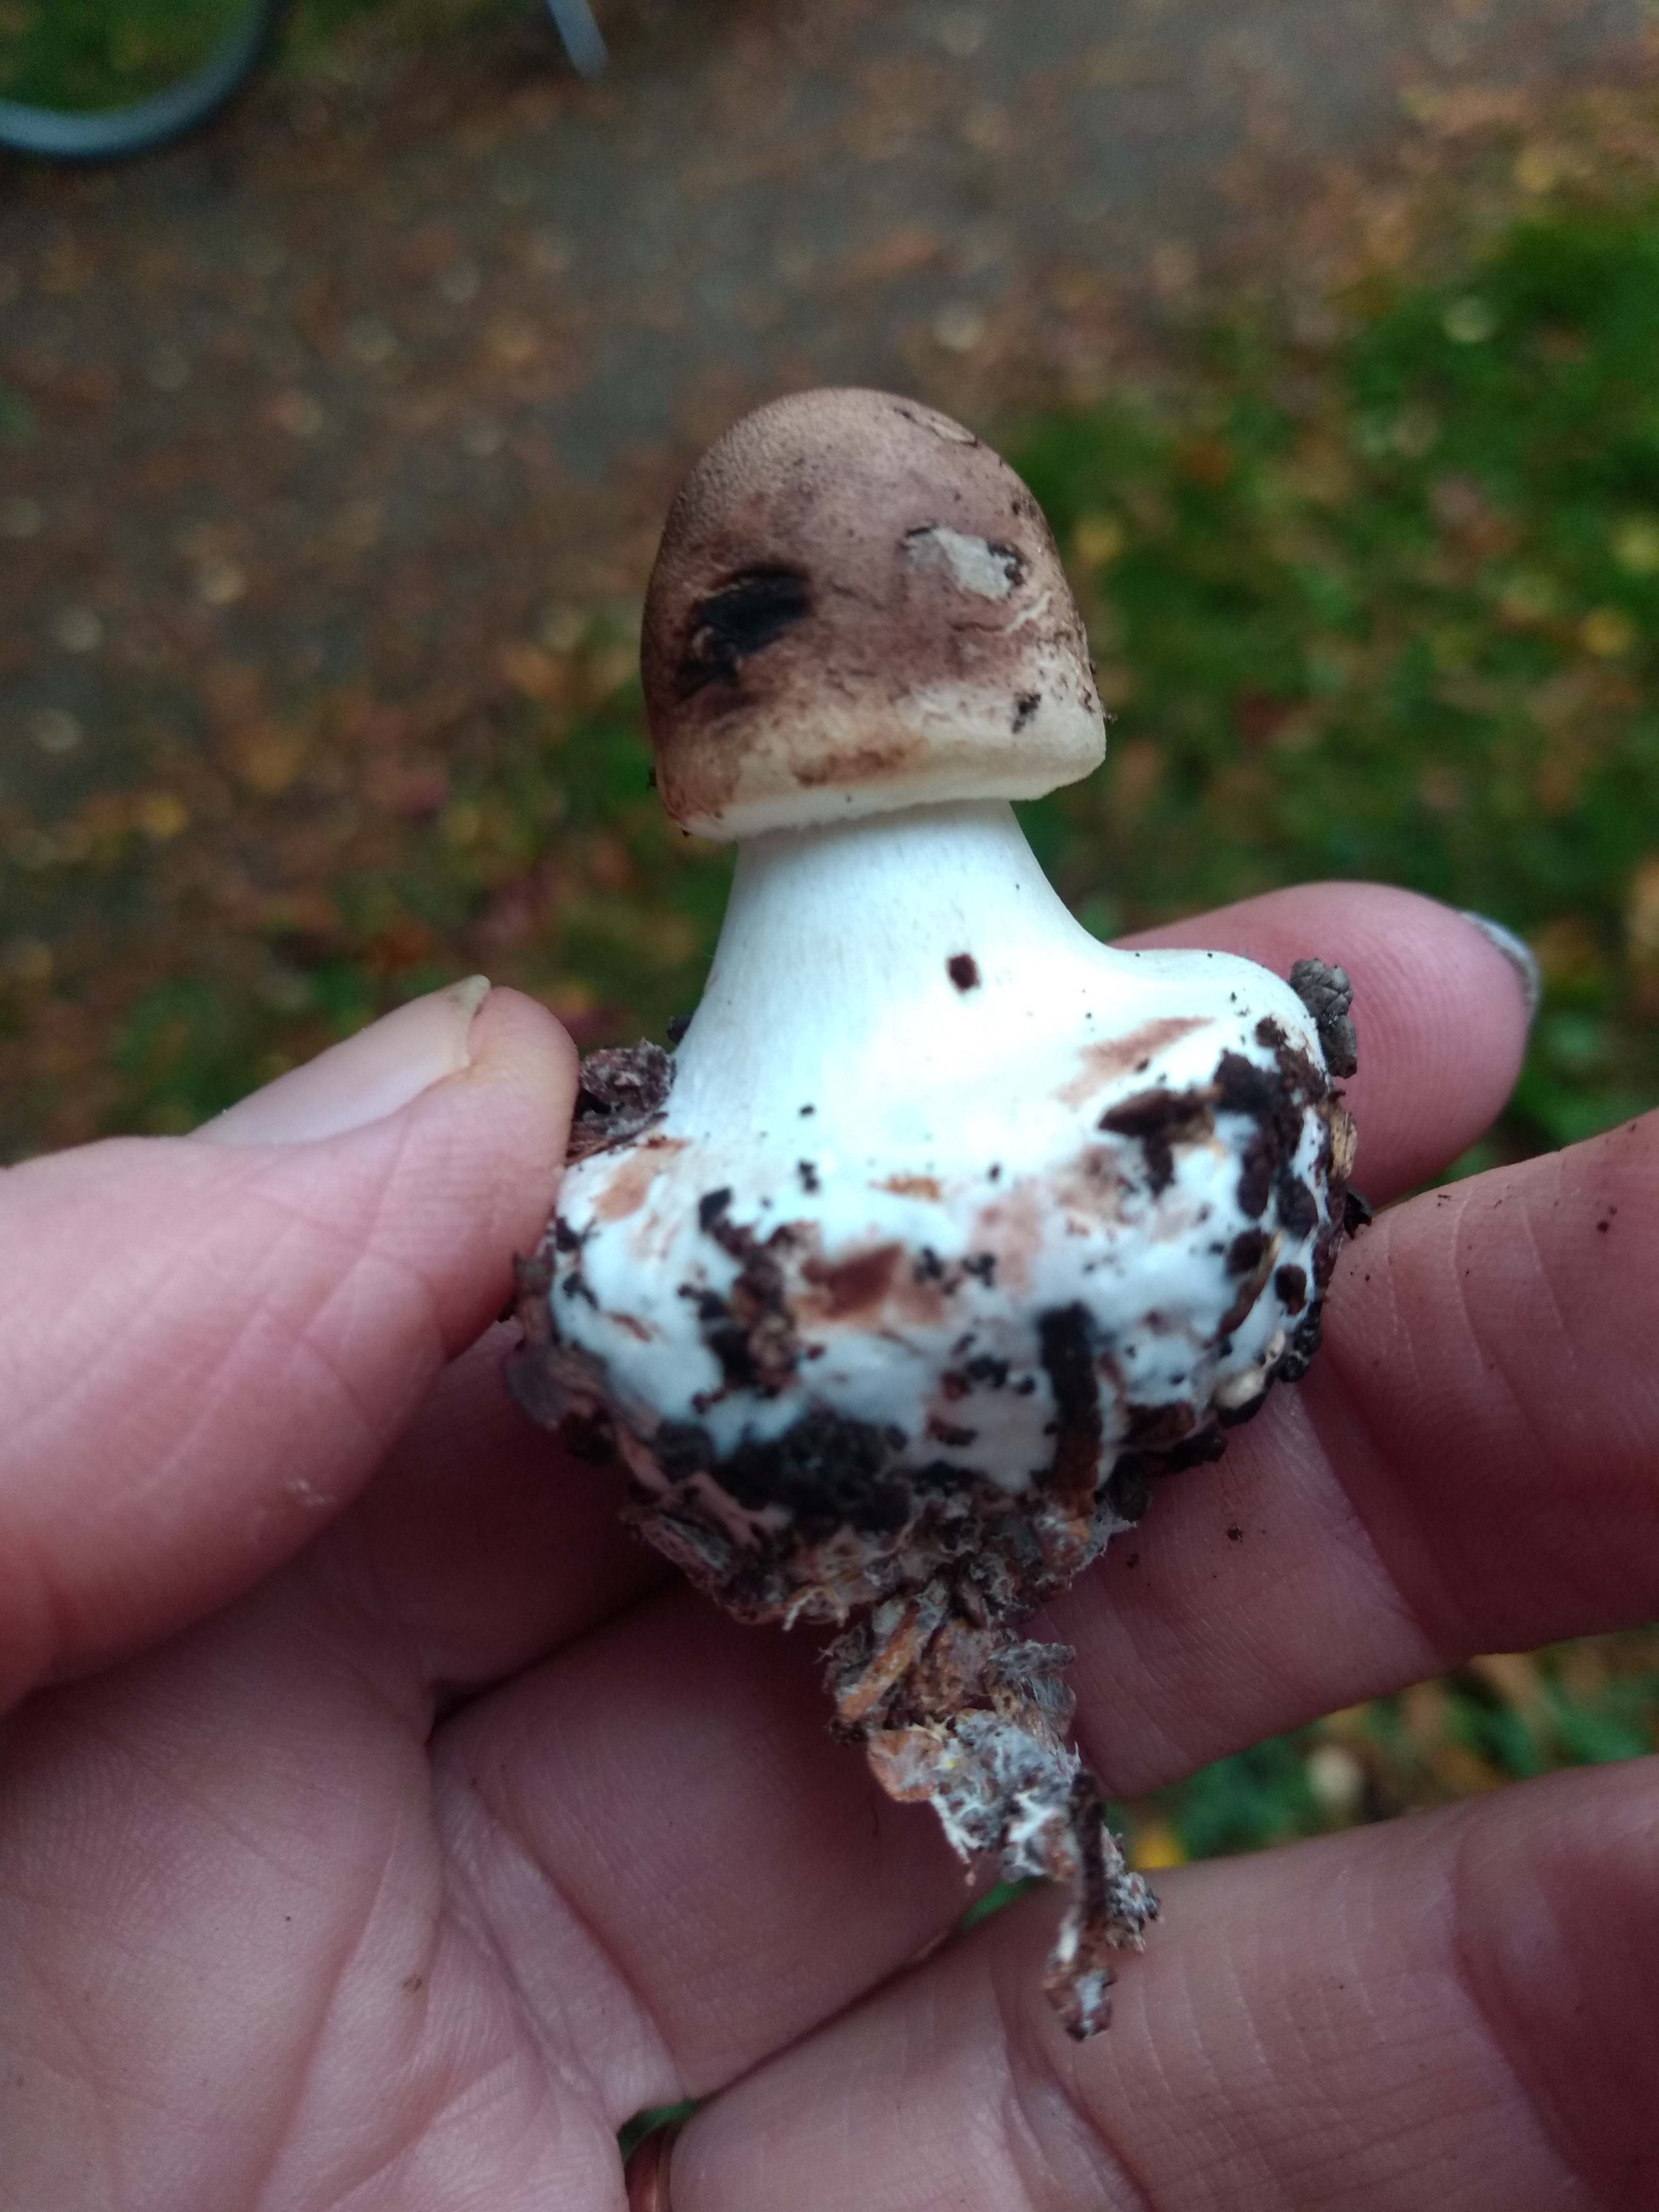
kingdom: Fungi
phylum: Basidiomycota
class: Agaricomycetes
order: Agaricales
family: Agaricaceae
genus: Chlorophyllum
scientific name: Chlorophyllum
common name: rabarberhat
